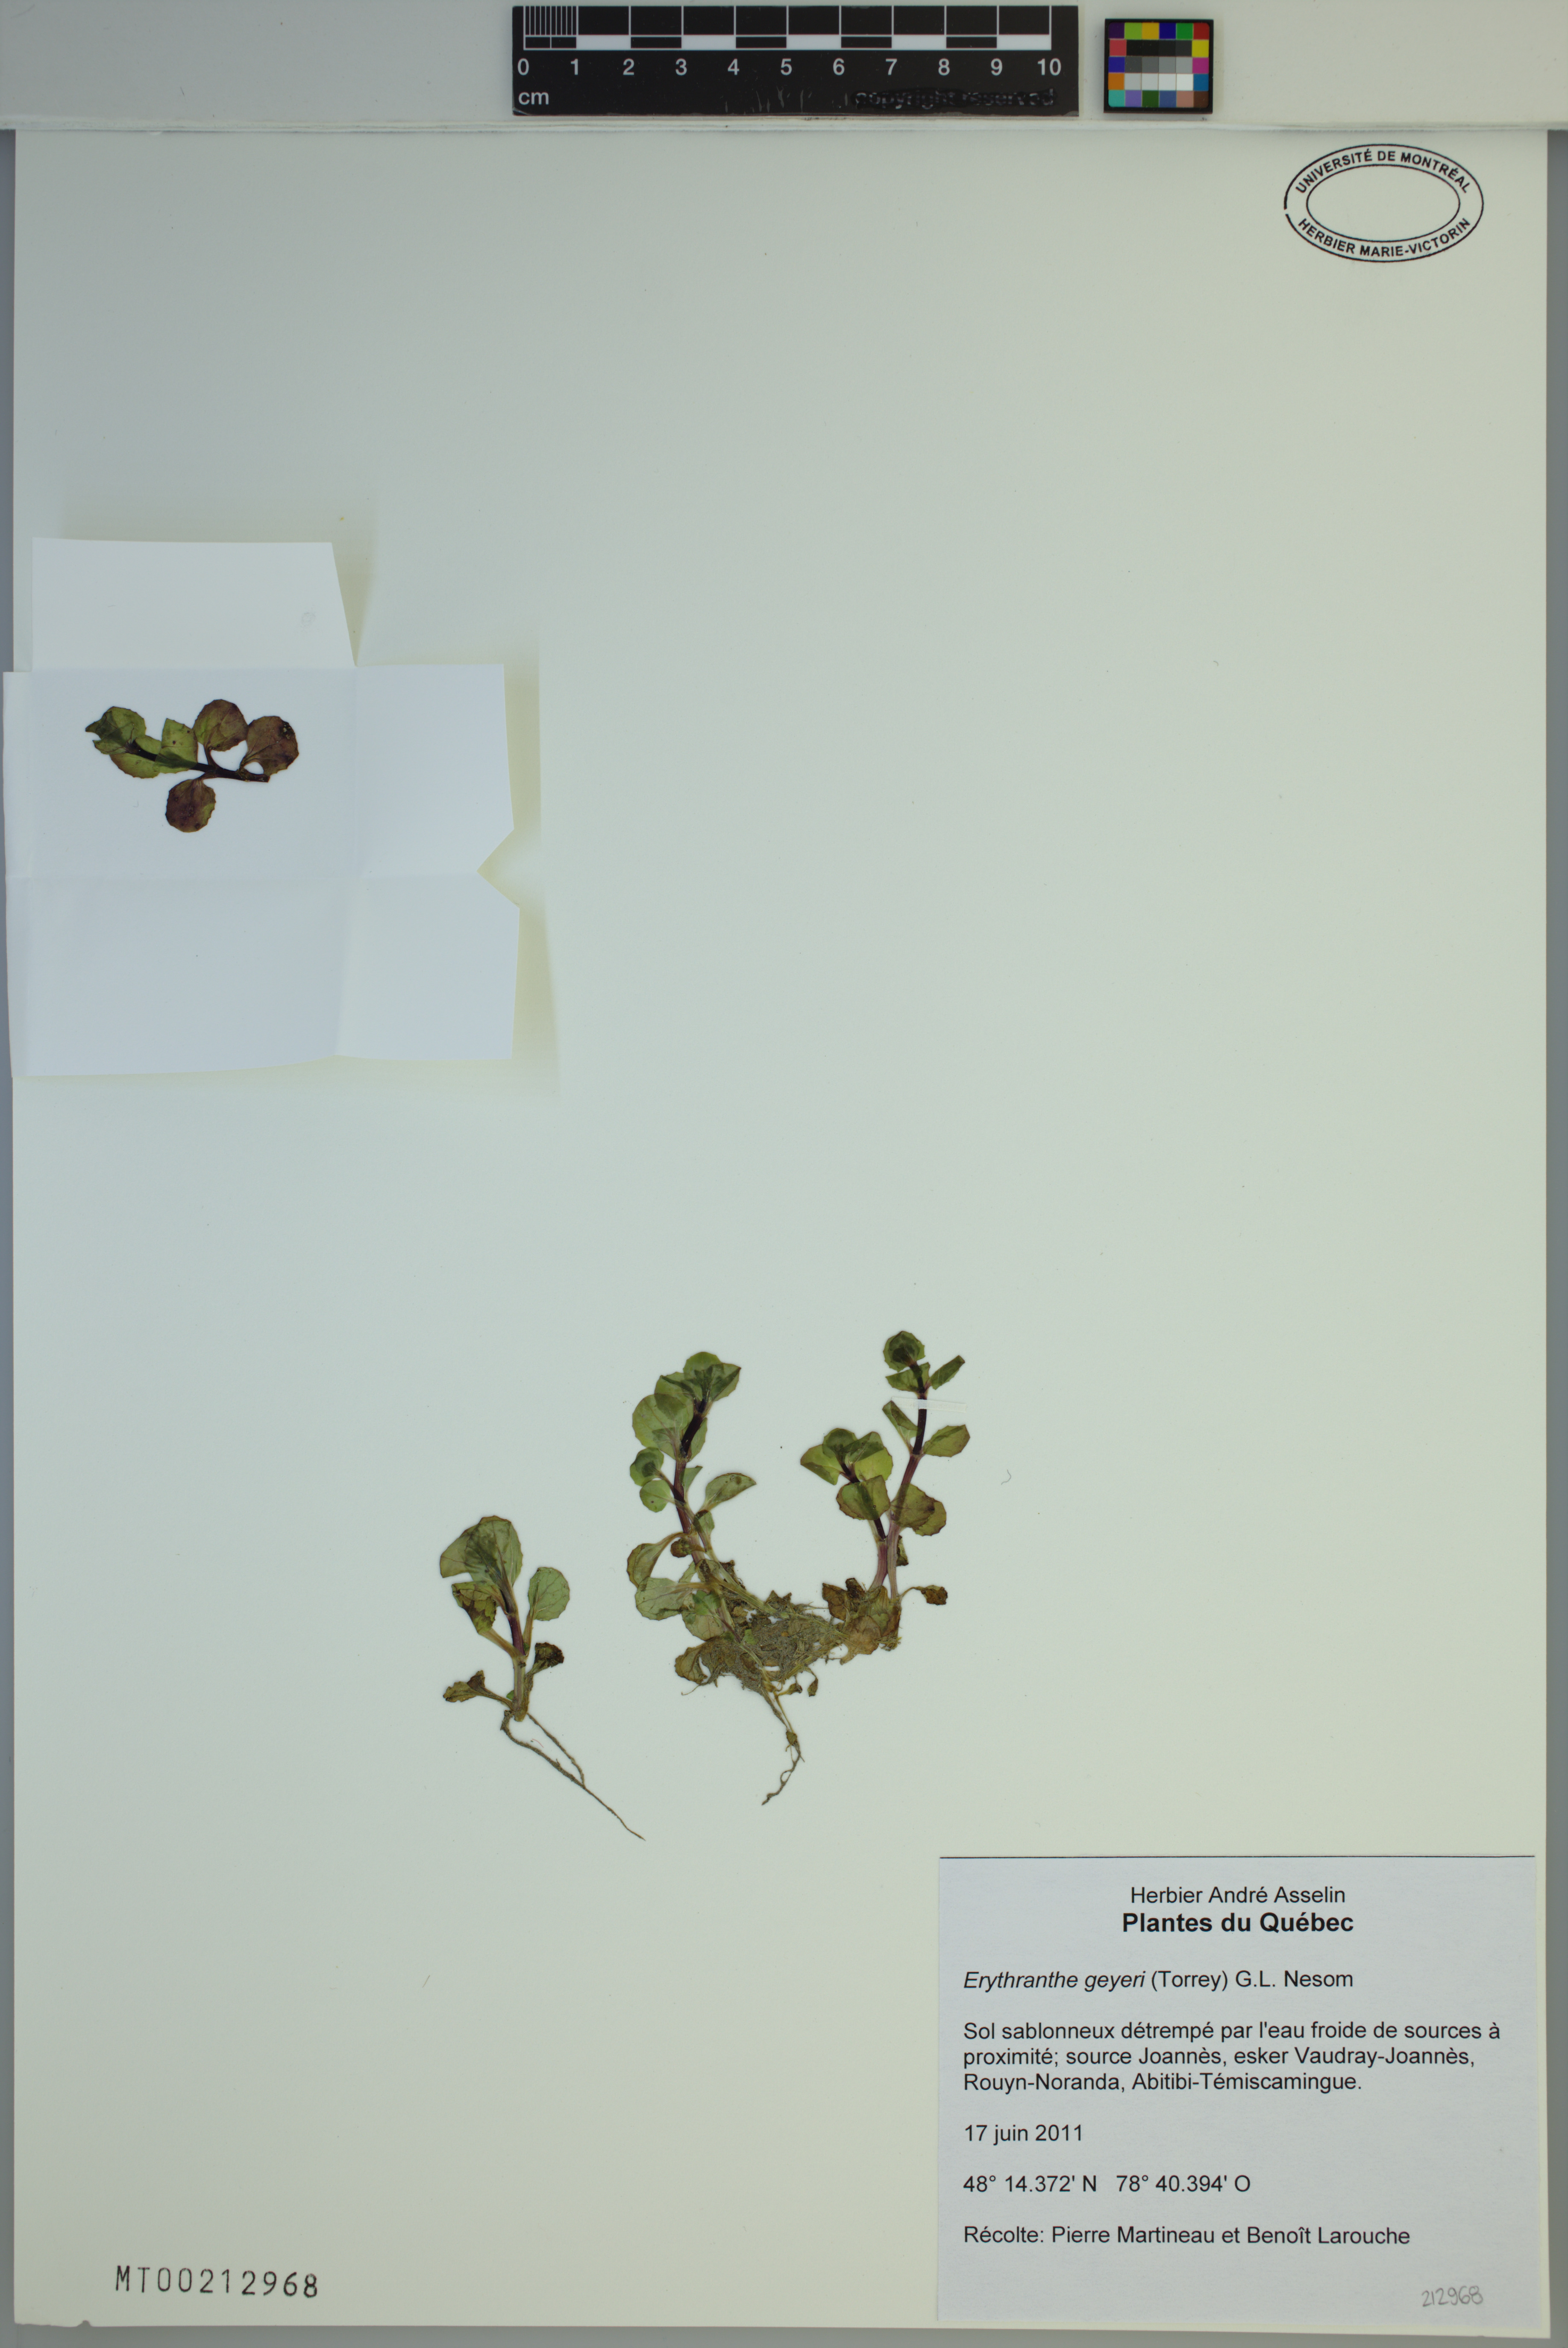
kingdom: Plantae
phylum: Tracheophyta
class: Magnoliopsida
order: Lamiales
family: Phrymaceae
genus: Erythranthe
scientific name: Erythranthe geyeri
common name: Geyer's monkeyflower
